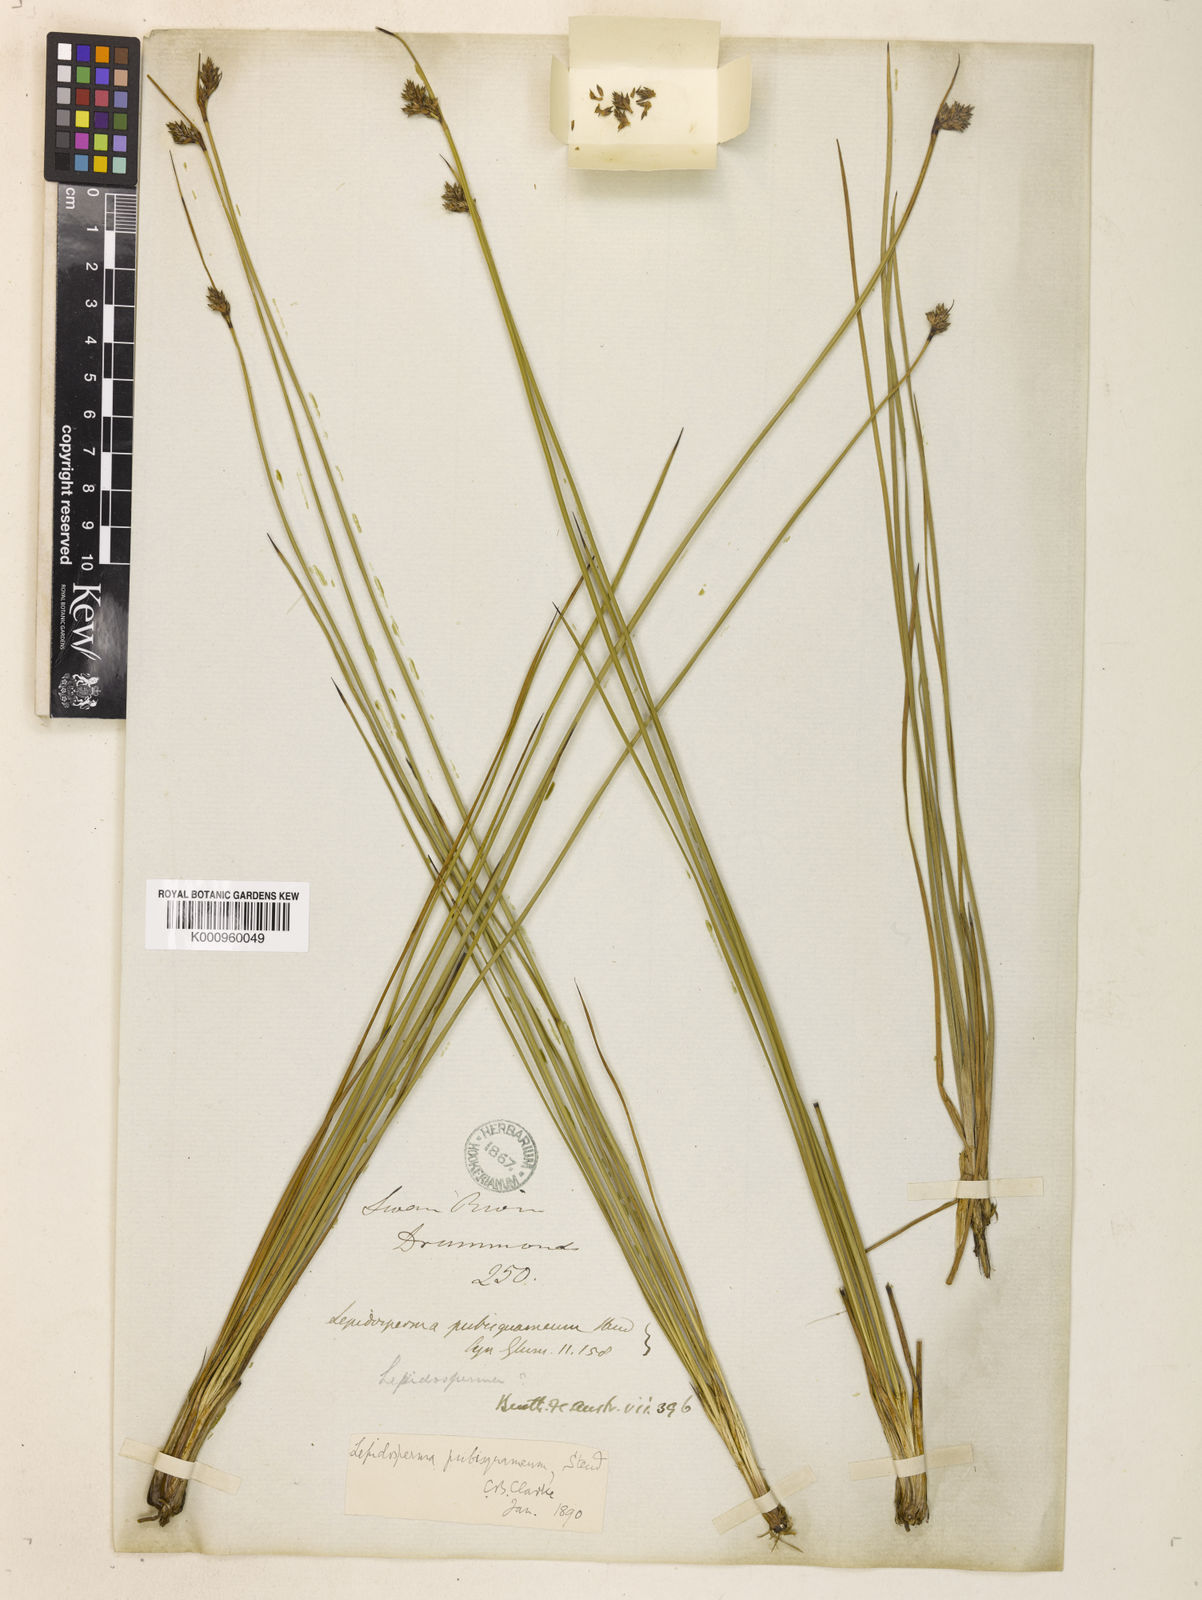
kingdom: Plantae
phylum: Tracheophyta
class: Liliopsida
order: Poales
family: Cyperaceae
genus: Lepidosperma
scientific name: Lepidosperma pubisquameum
